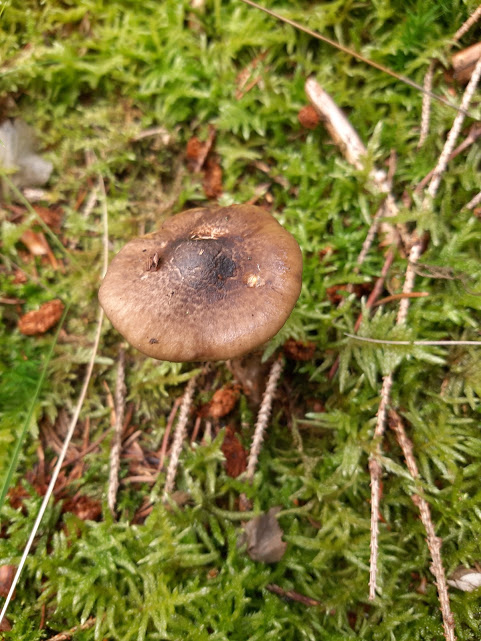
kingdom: Fungi
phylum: Basidiomycota
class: Agaricomycetes
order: Agaricales
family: Hygrophoraceae
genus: Hygrophorus
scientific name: Hygrophorus olivaceoalbus
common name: hvidbrun sneglehat
